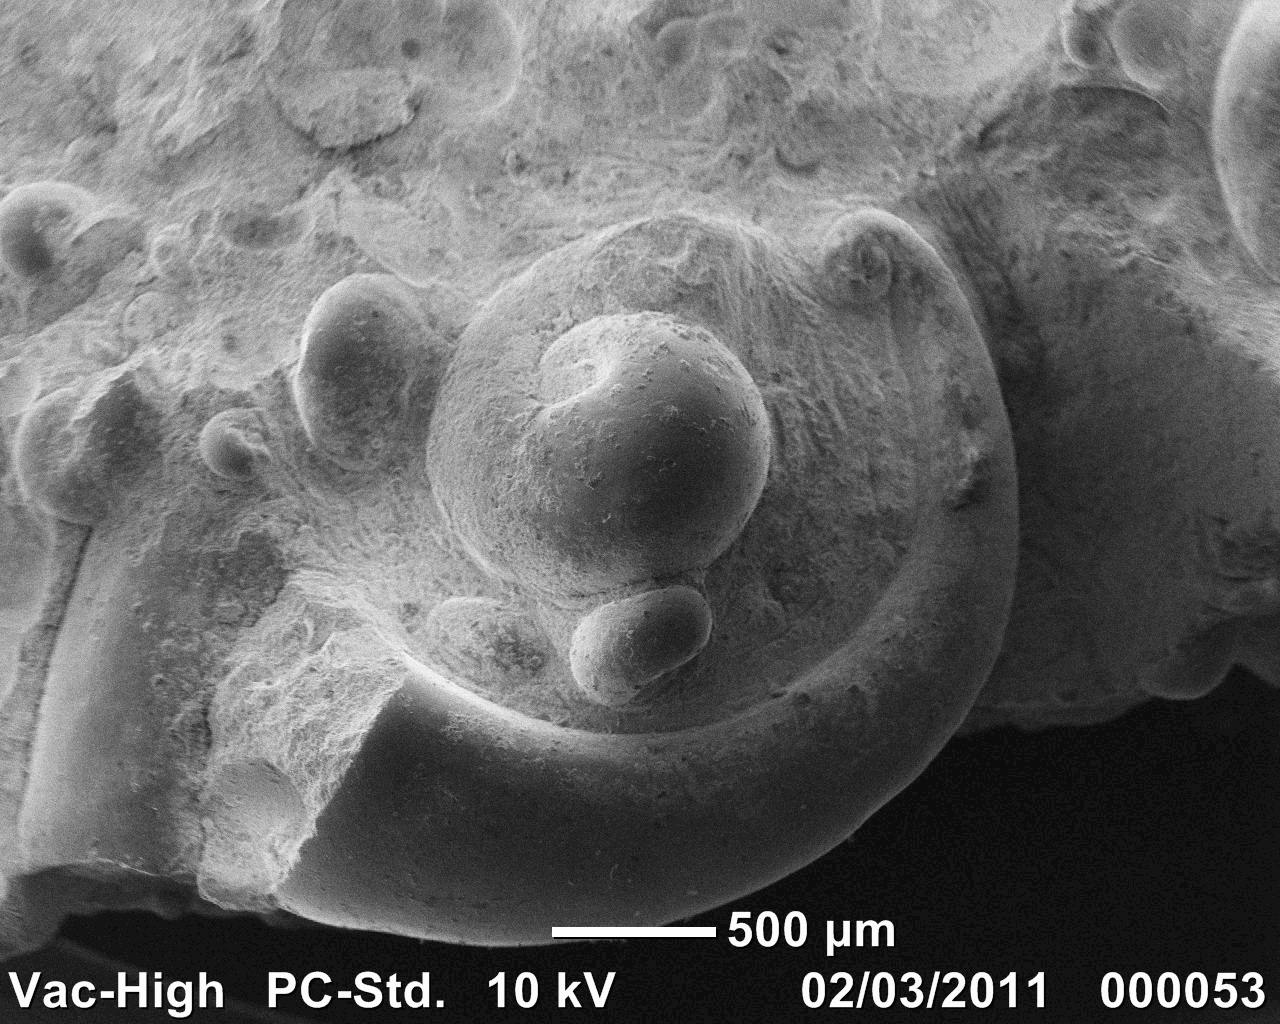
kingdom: Animalia
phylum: Mollusca
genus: Globorilusopsis
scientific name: Globorilusopsis
